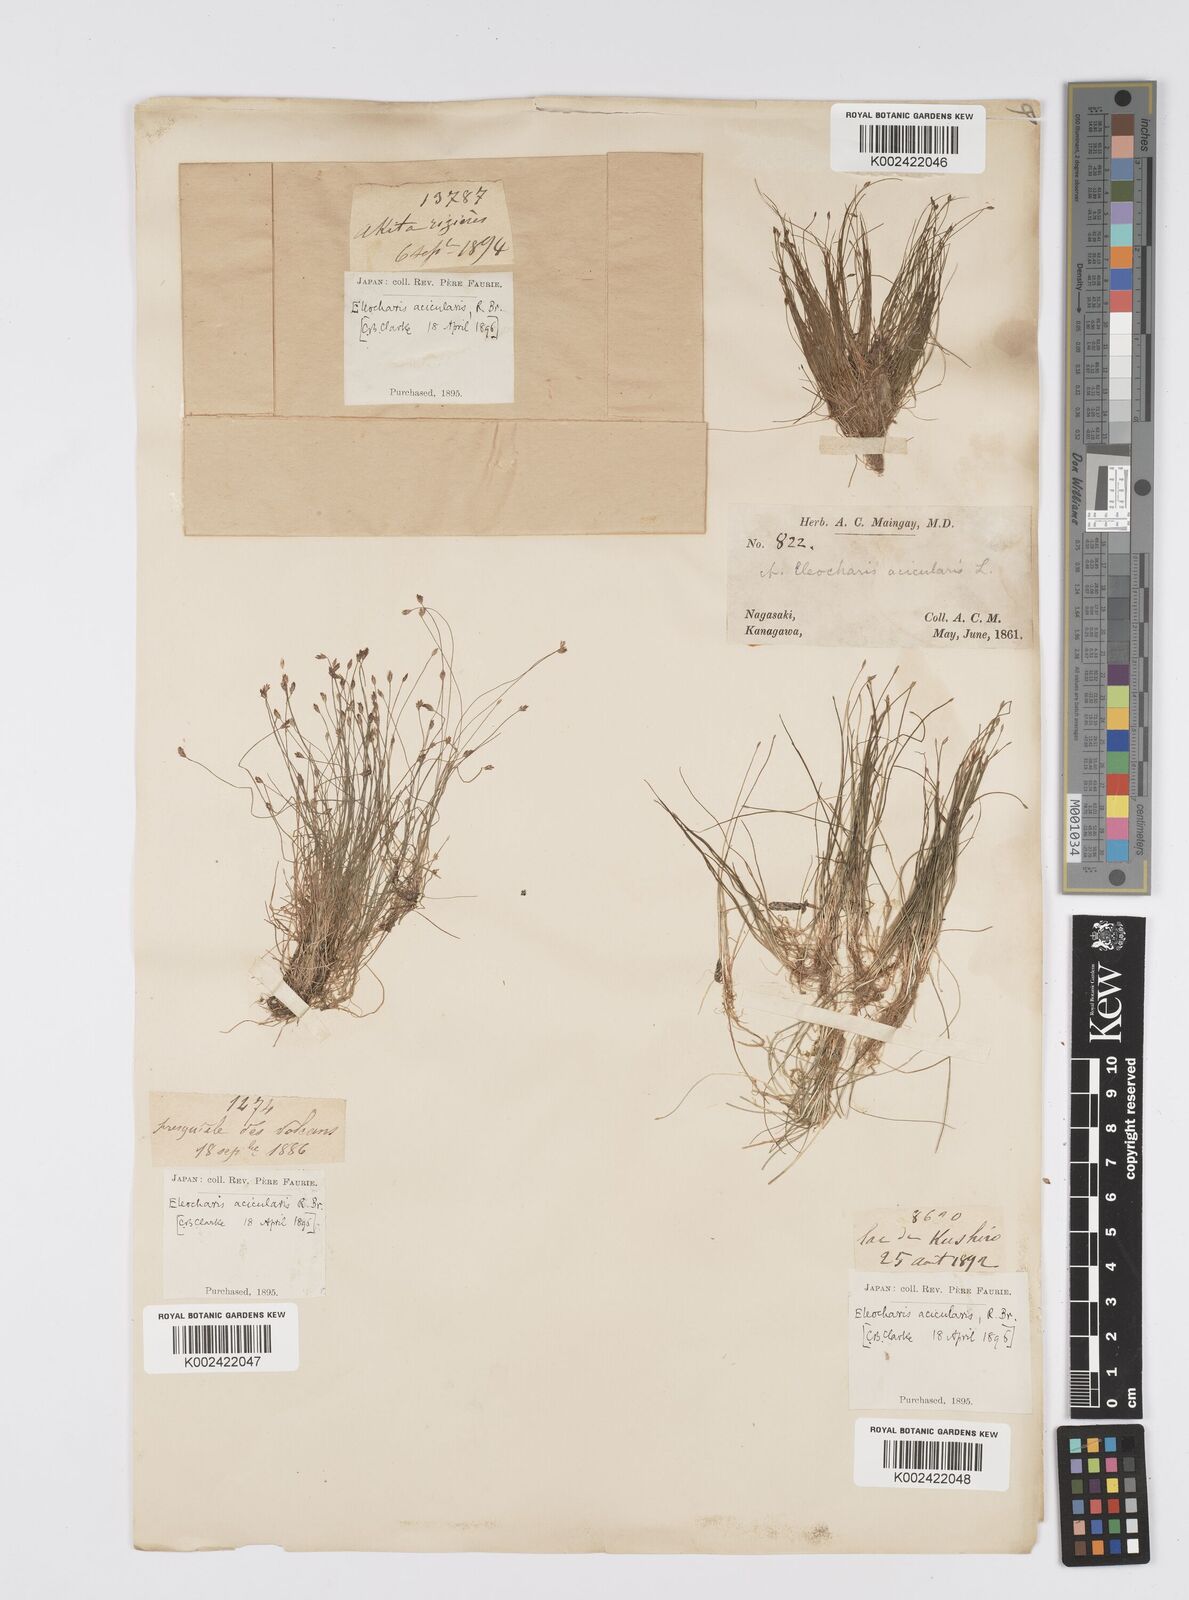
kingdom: Plantae
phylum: Tracheophyta
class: Liliopsida
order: Poales
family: Cyperaceae
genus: Eleocharis
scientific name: Eleocharis acicularis
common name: Needle spike-rush
